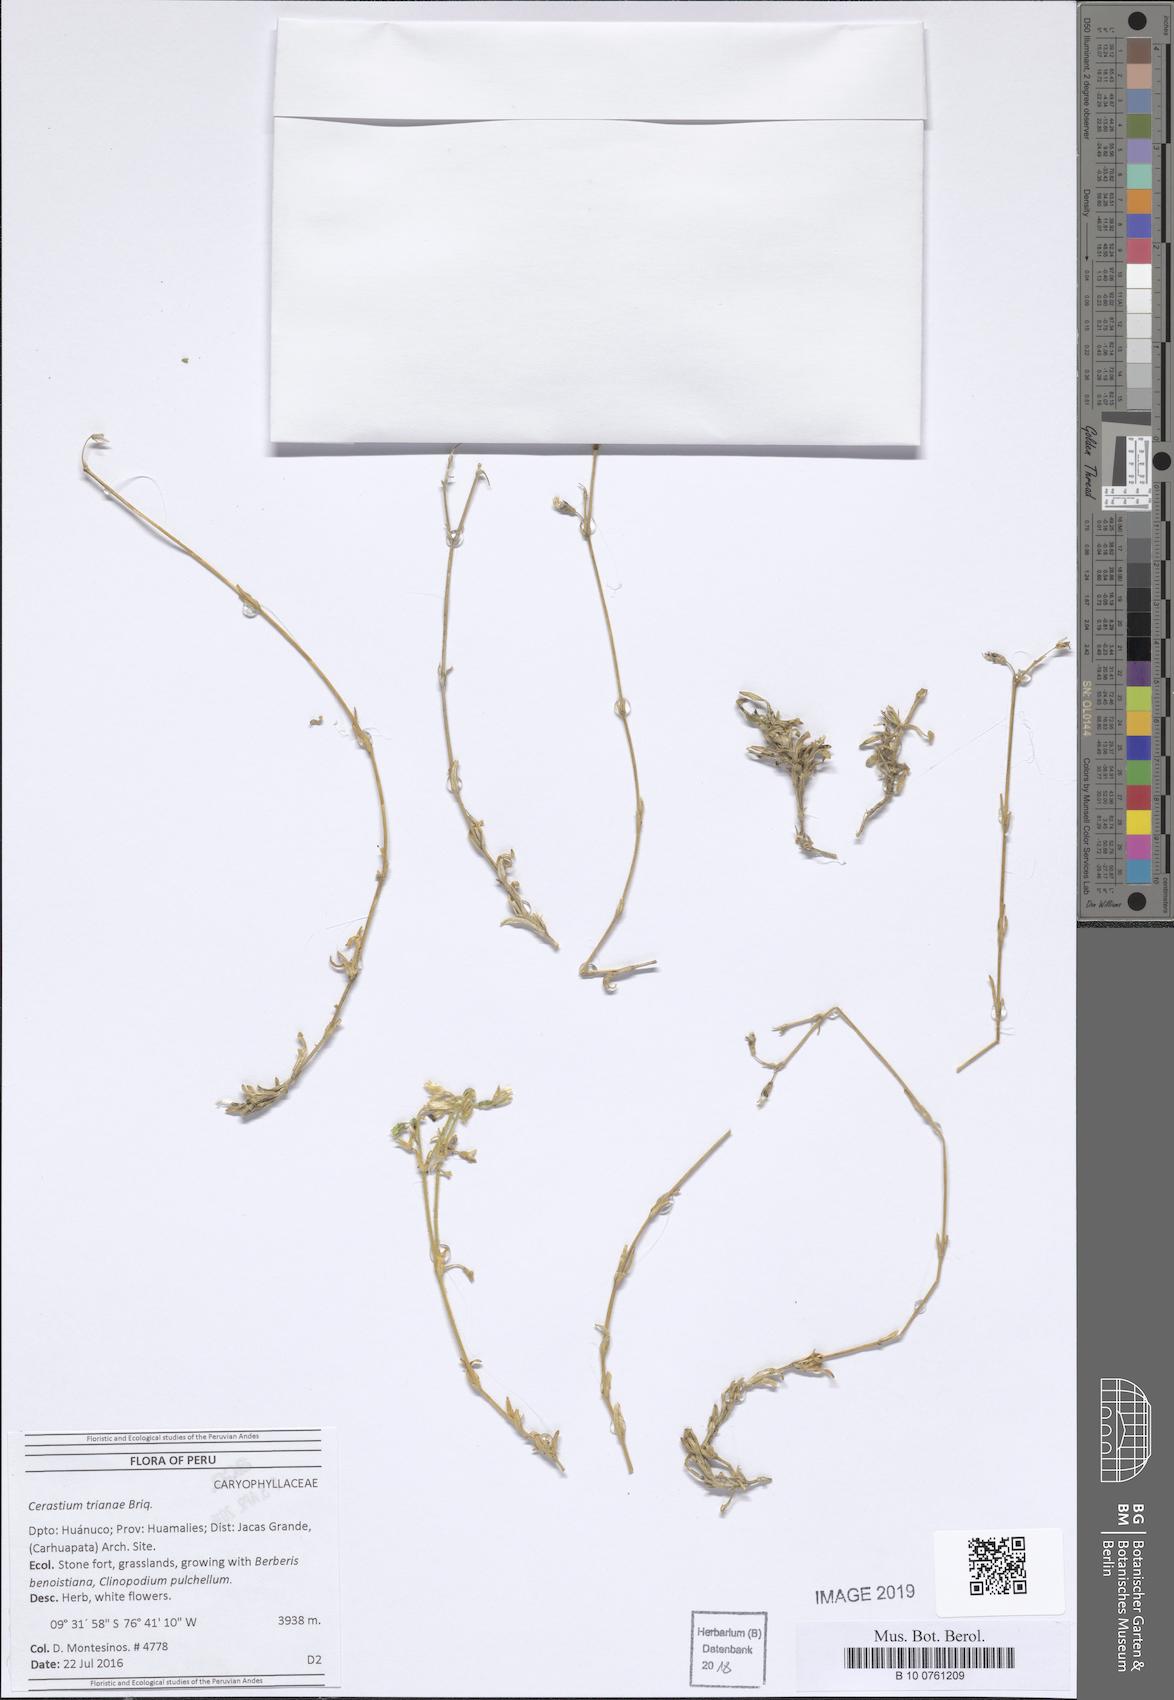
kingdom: Plantae
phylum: Tracheophyta
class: Magnoliopsida
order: Caryophyllales
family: Caryophyllaceae
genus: Cerastium
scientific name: Cerastium trianae
